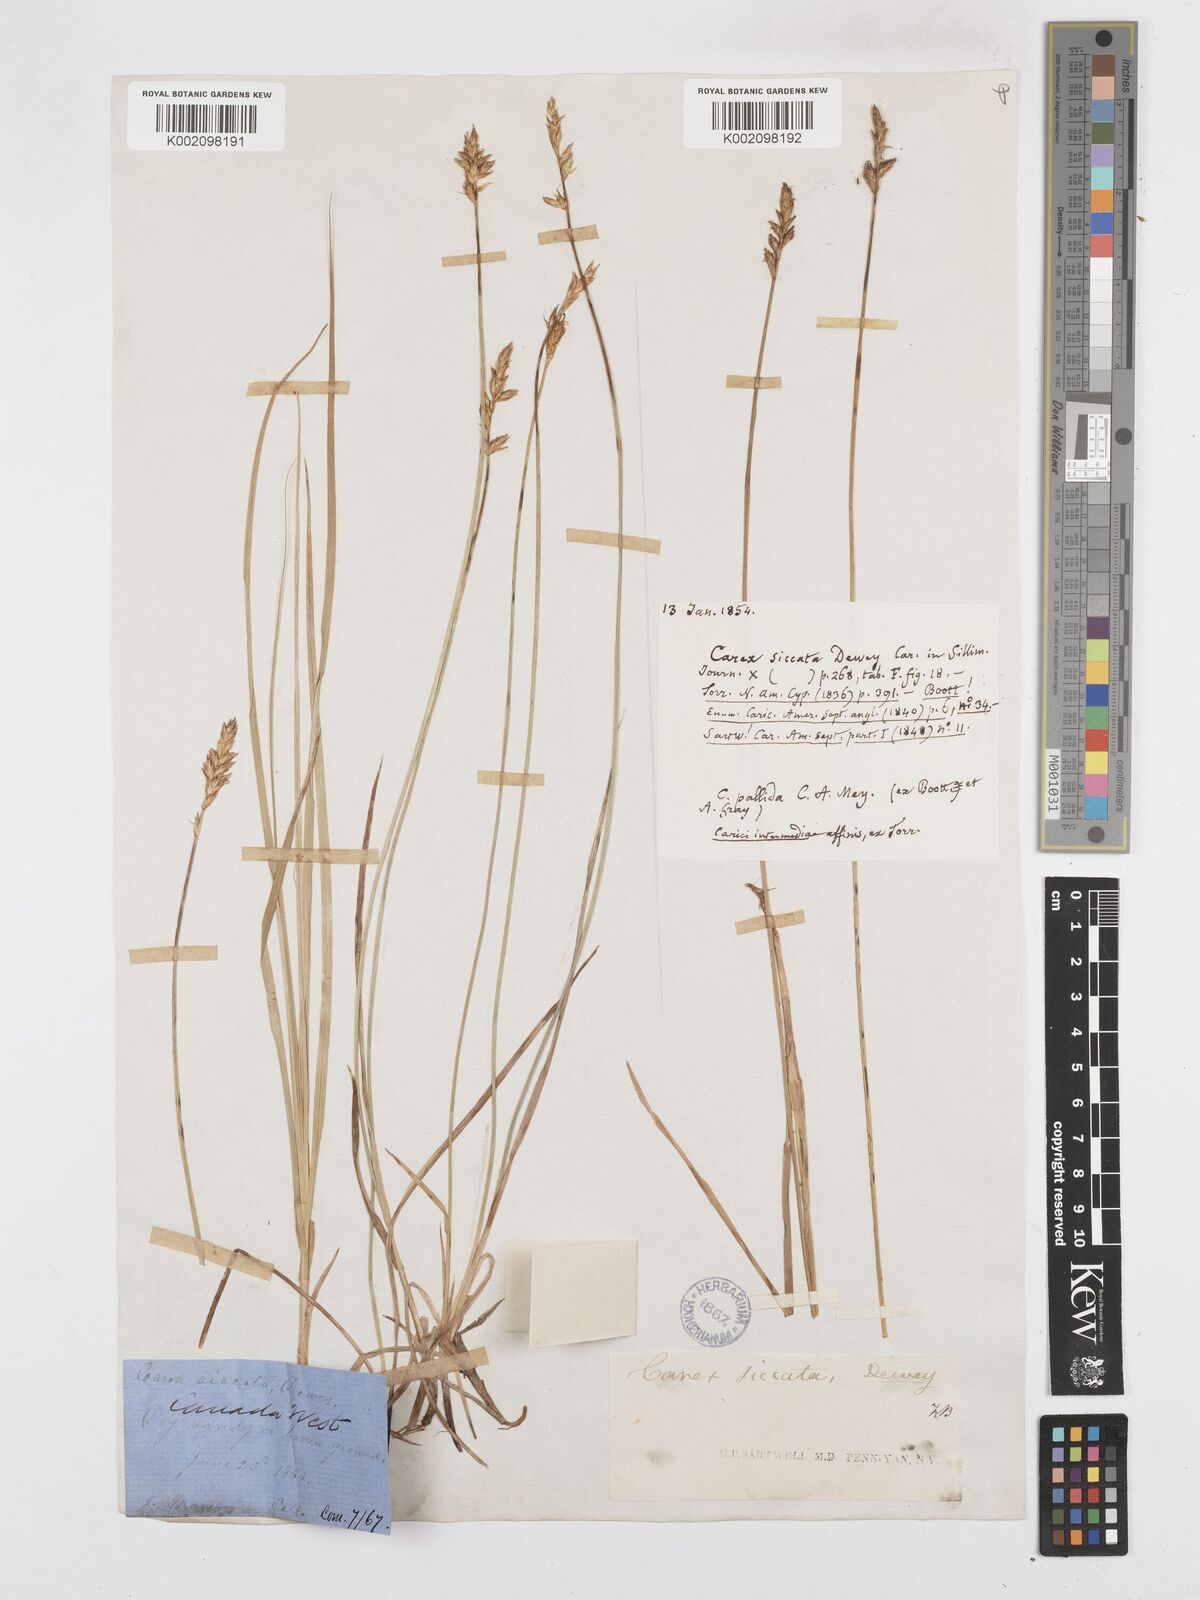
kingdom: Plantae
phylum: Tracheophyta
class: Liliopsida
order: Poales
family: Cyperaceae
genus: Carex
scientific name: Carex foenea
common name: Bronze sedge
